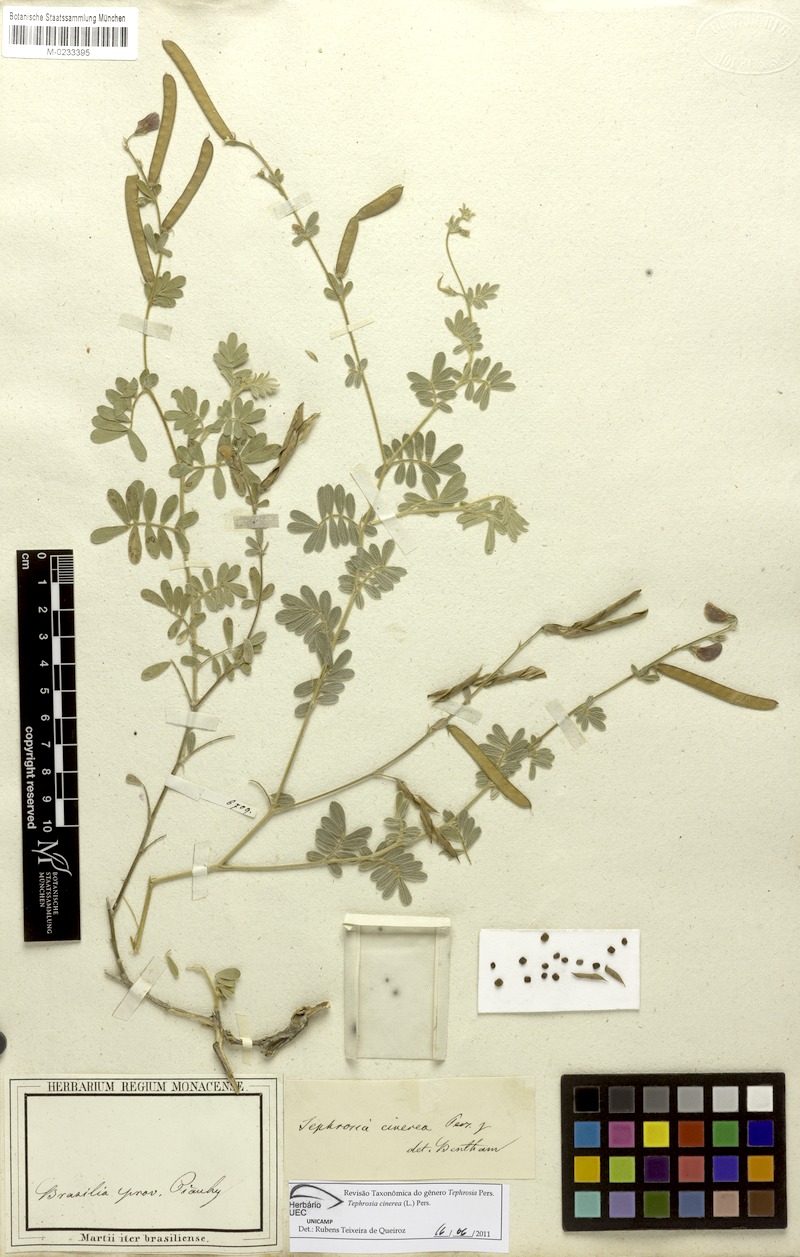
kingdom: Plantae
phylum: Tracheophyta
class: Magnoliopsida
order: Fabales
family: Fabaceae
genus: Tephrosia
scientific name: Tephrosia cinerea
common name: Ashen hoarypea
